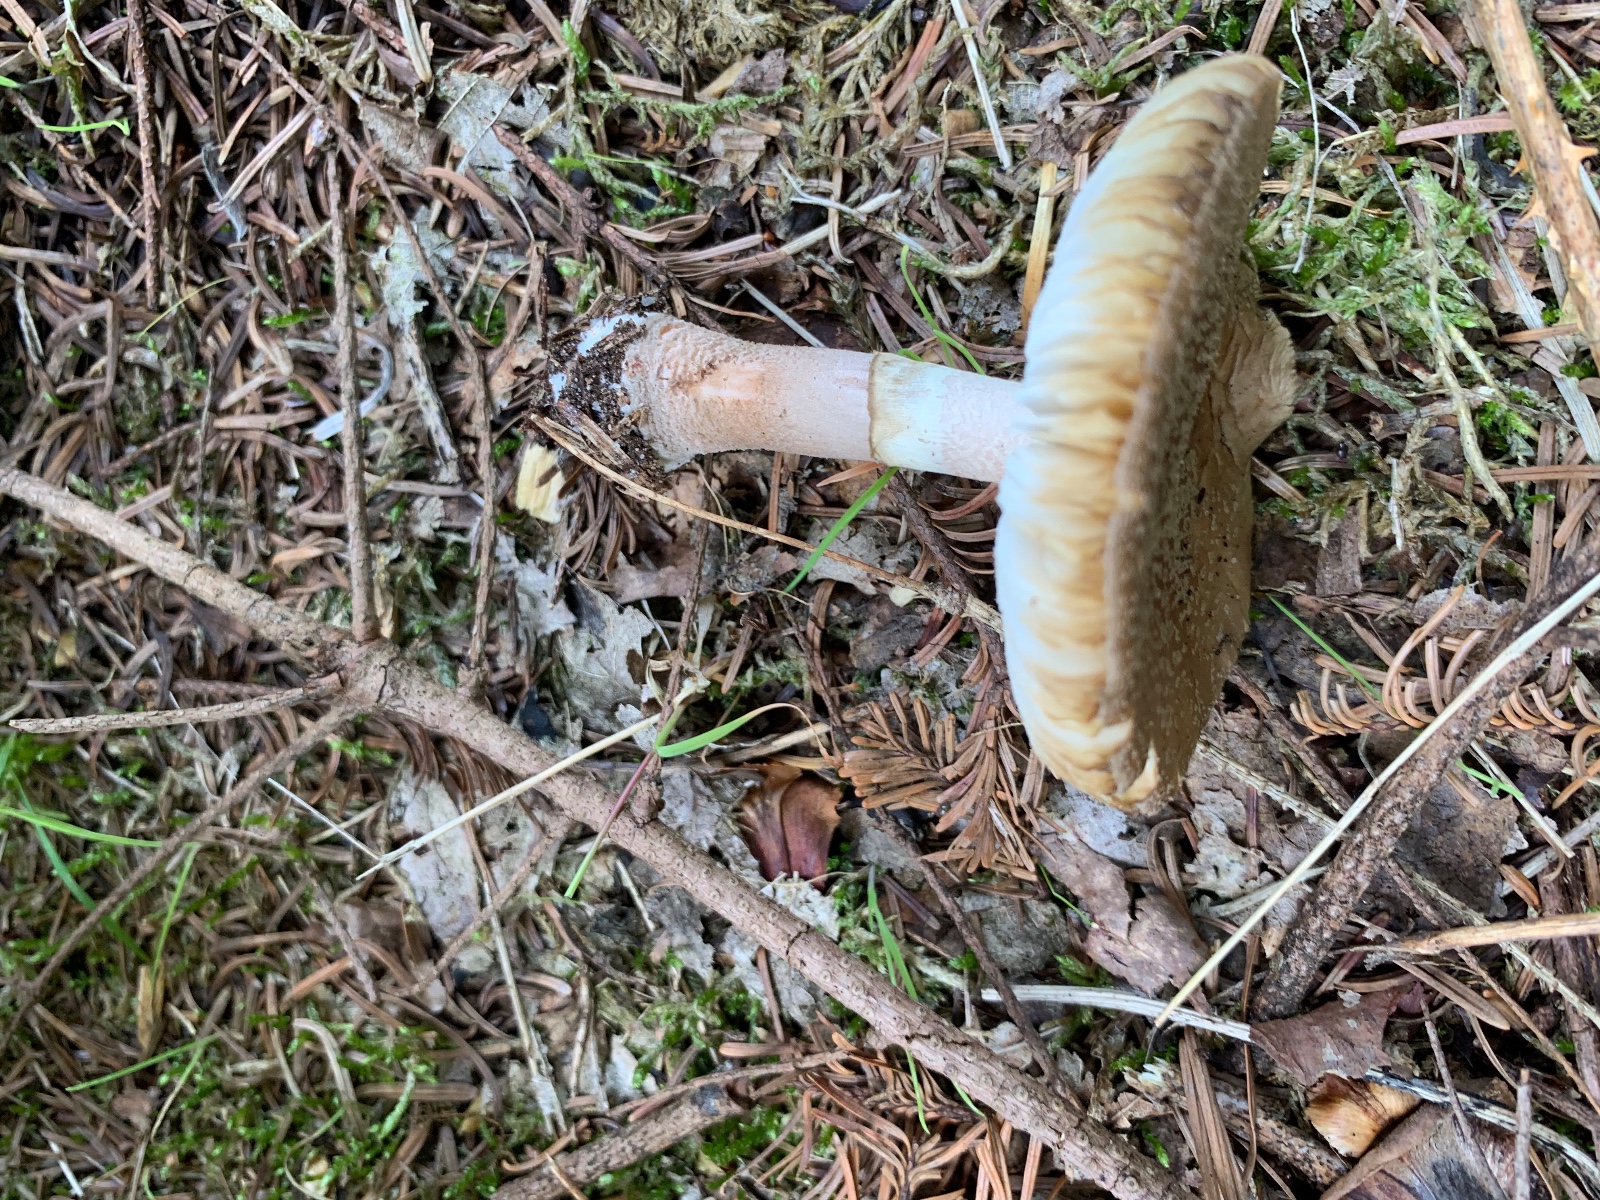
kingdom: Fungi
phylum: Basidiomycota
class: Agaricomycetes
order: Agaricales
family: Amanitaceae
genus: Amanita
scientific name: Amanita rubescens
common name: rødmende fluesvamp
